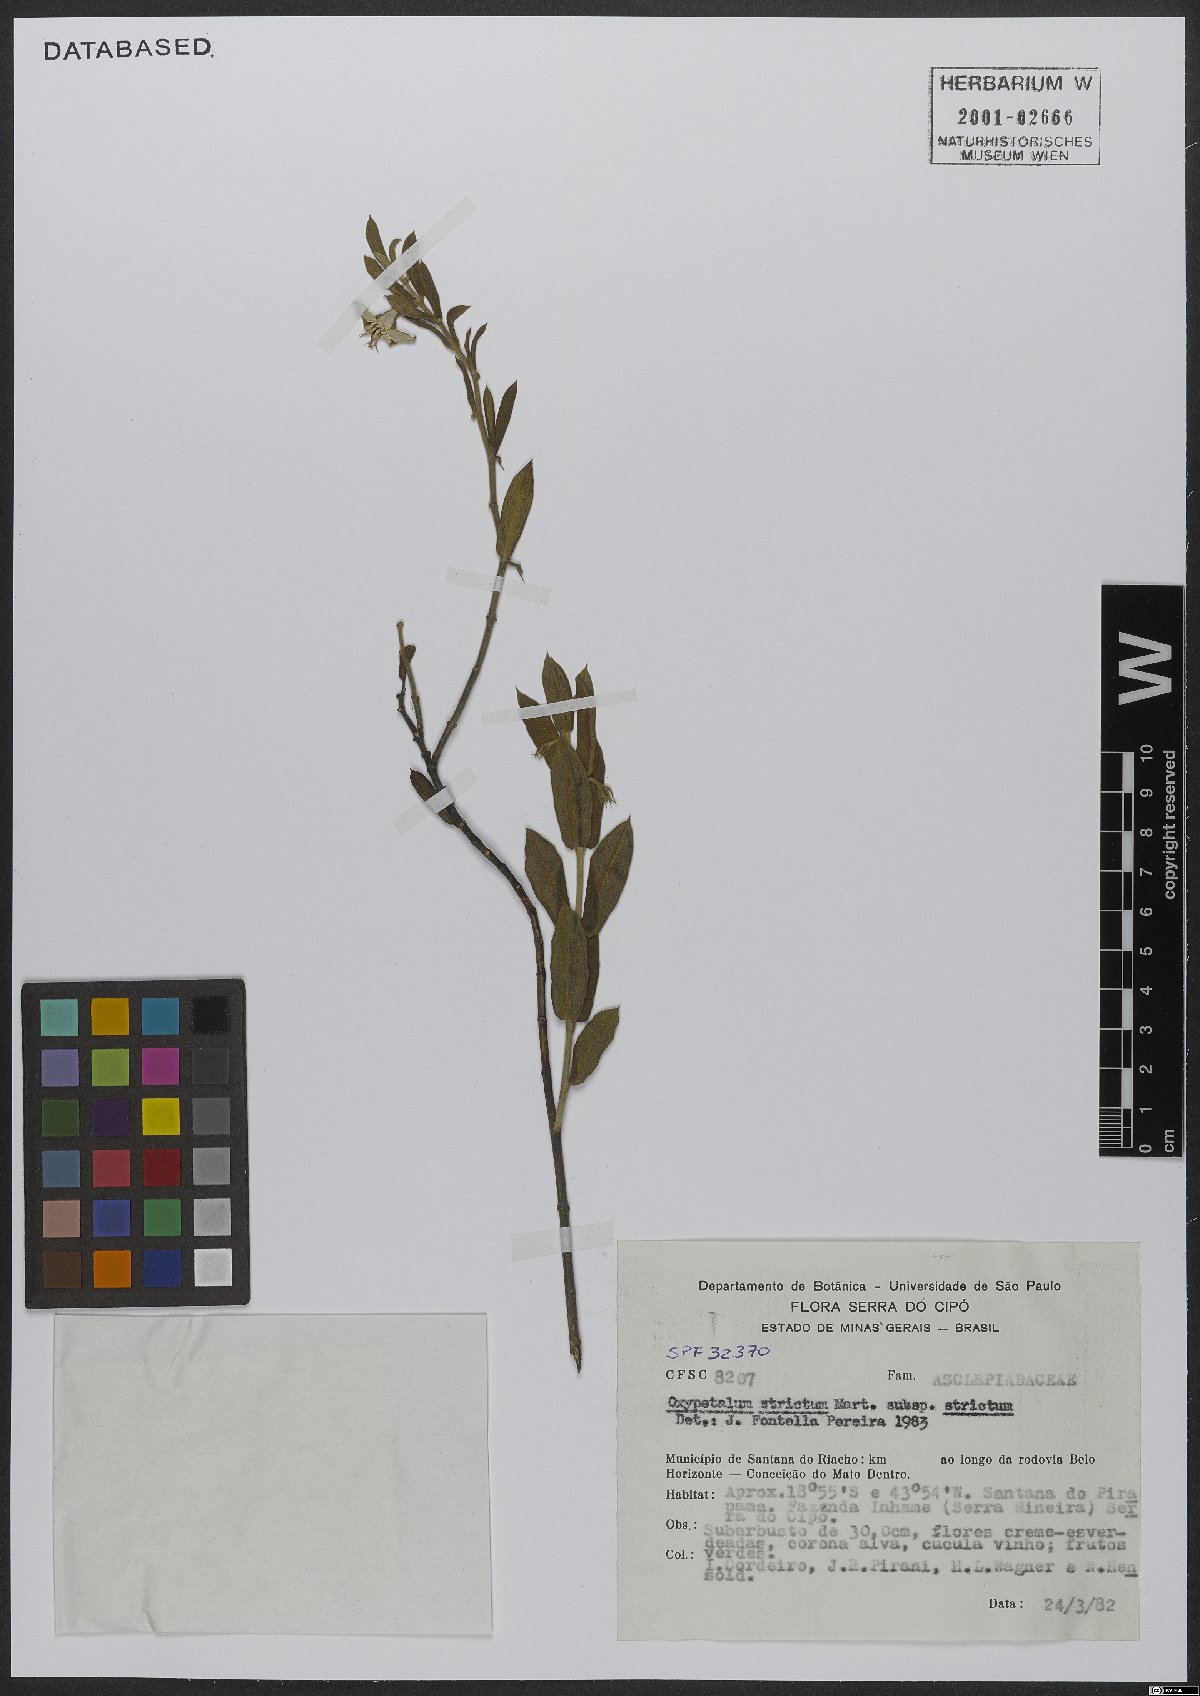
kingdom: Plantae
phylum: Tracheophyta
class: Magnoliopsida
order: Gentianales
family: Apocynaceae
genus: Oxypetalum
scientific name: Oxypetalum strictum
